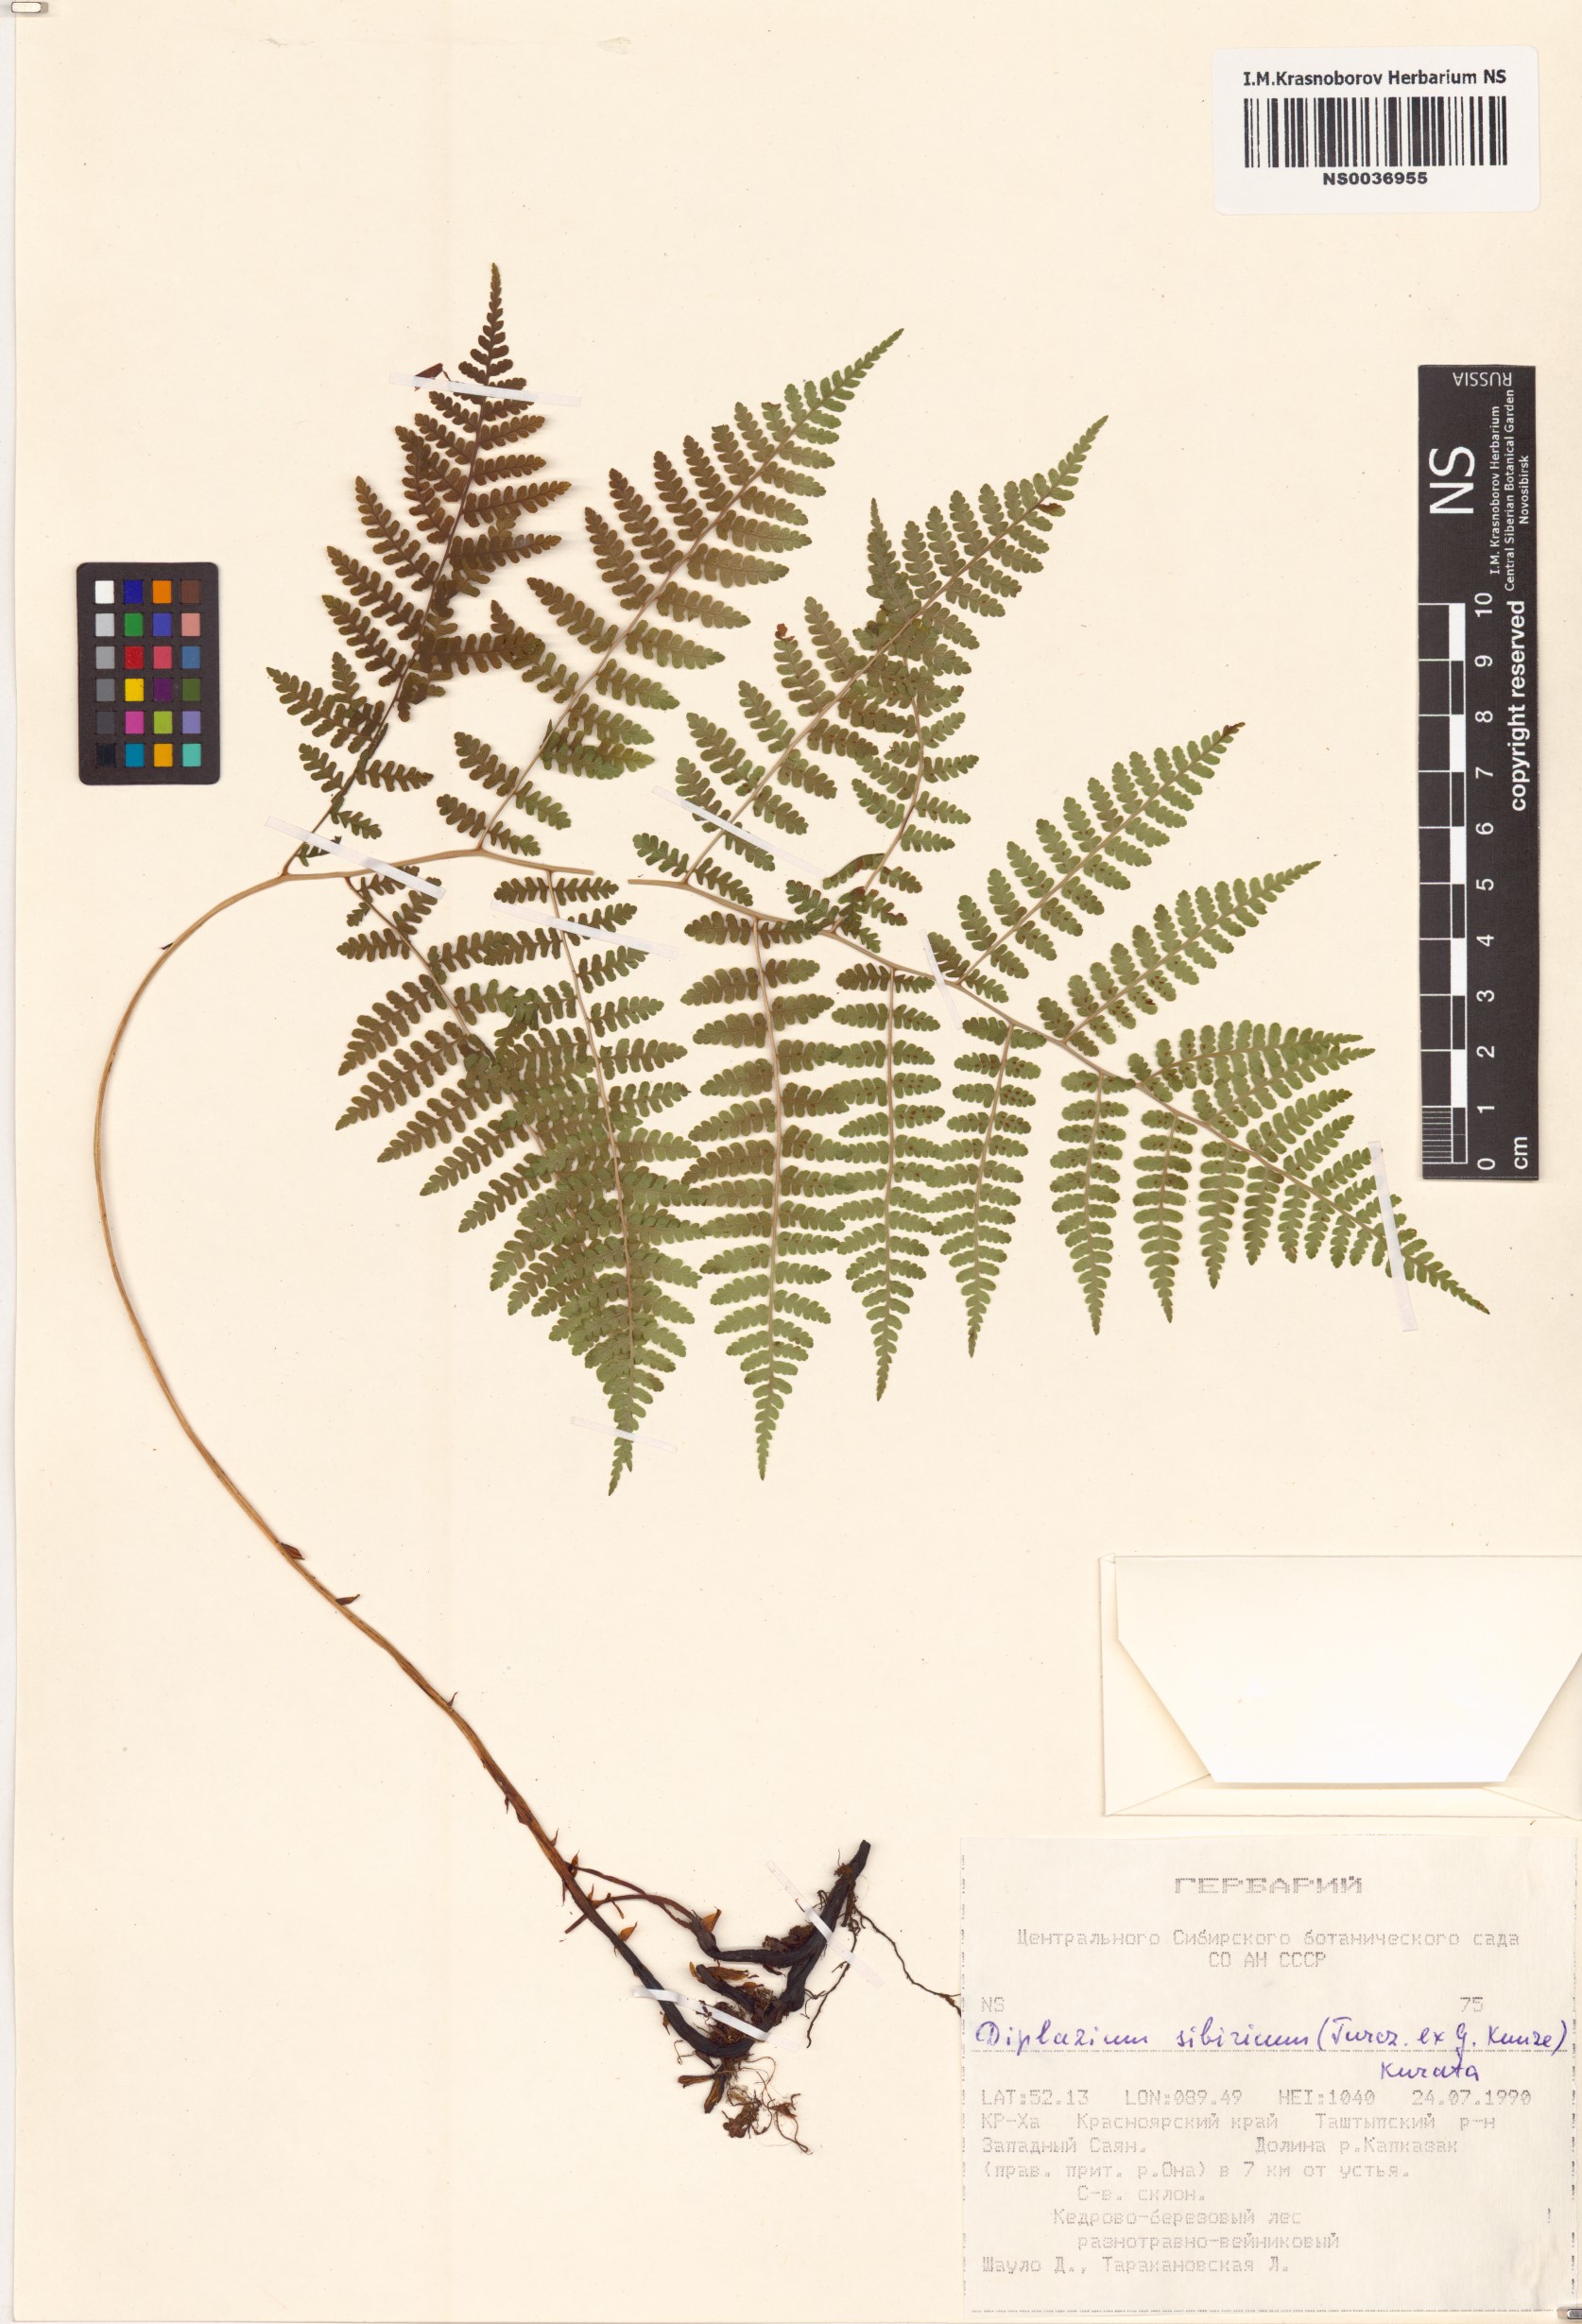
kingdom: Plantae
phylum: Tracheophyta
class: Polypodiopsida
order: Polypodiales
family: Athyriaceae
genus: Diplazium
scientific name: Diplazium sibiricum
